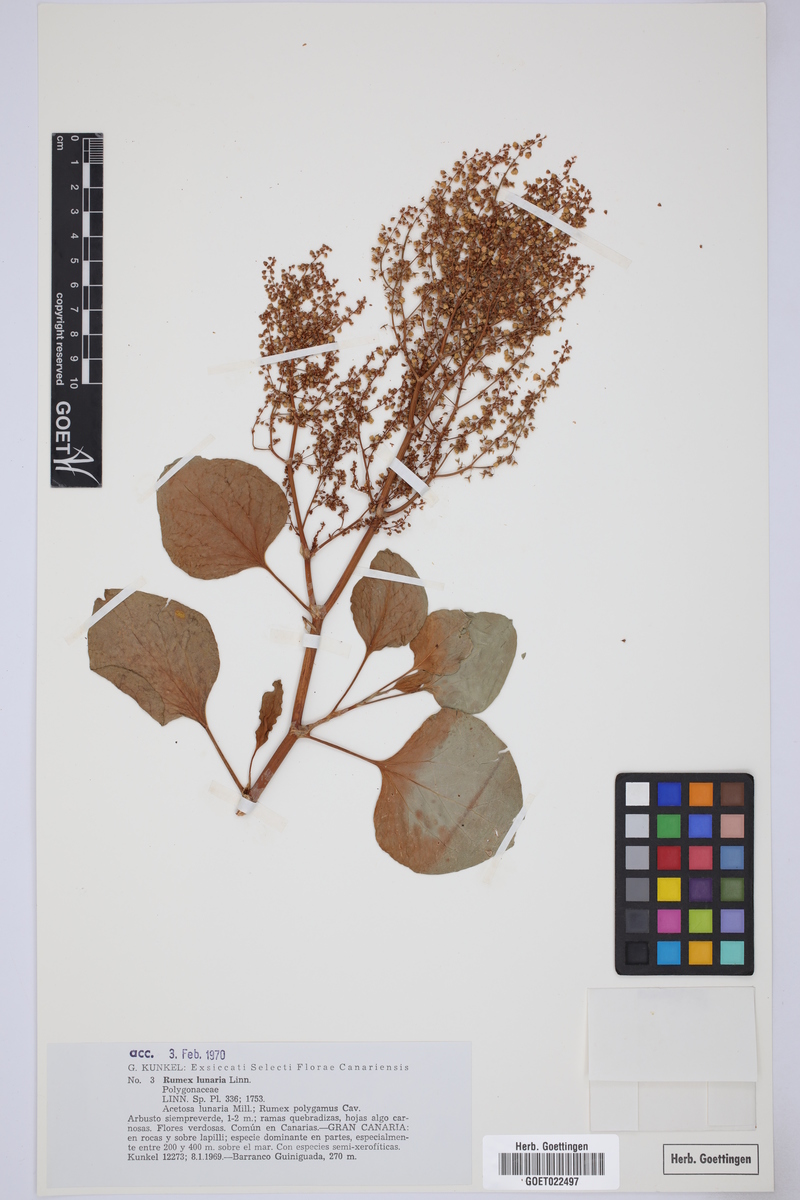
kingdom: Plantae
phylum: Tracheophyta
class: Magnoliopsida
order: Caryophyllales
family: Polygonaceae
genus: Rumex
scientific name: Rumex lunaria
